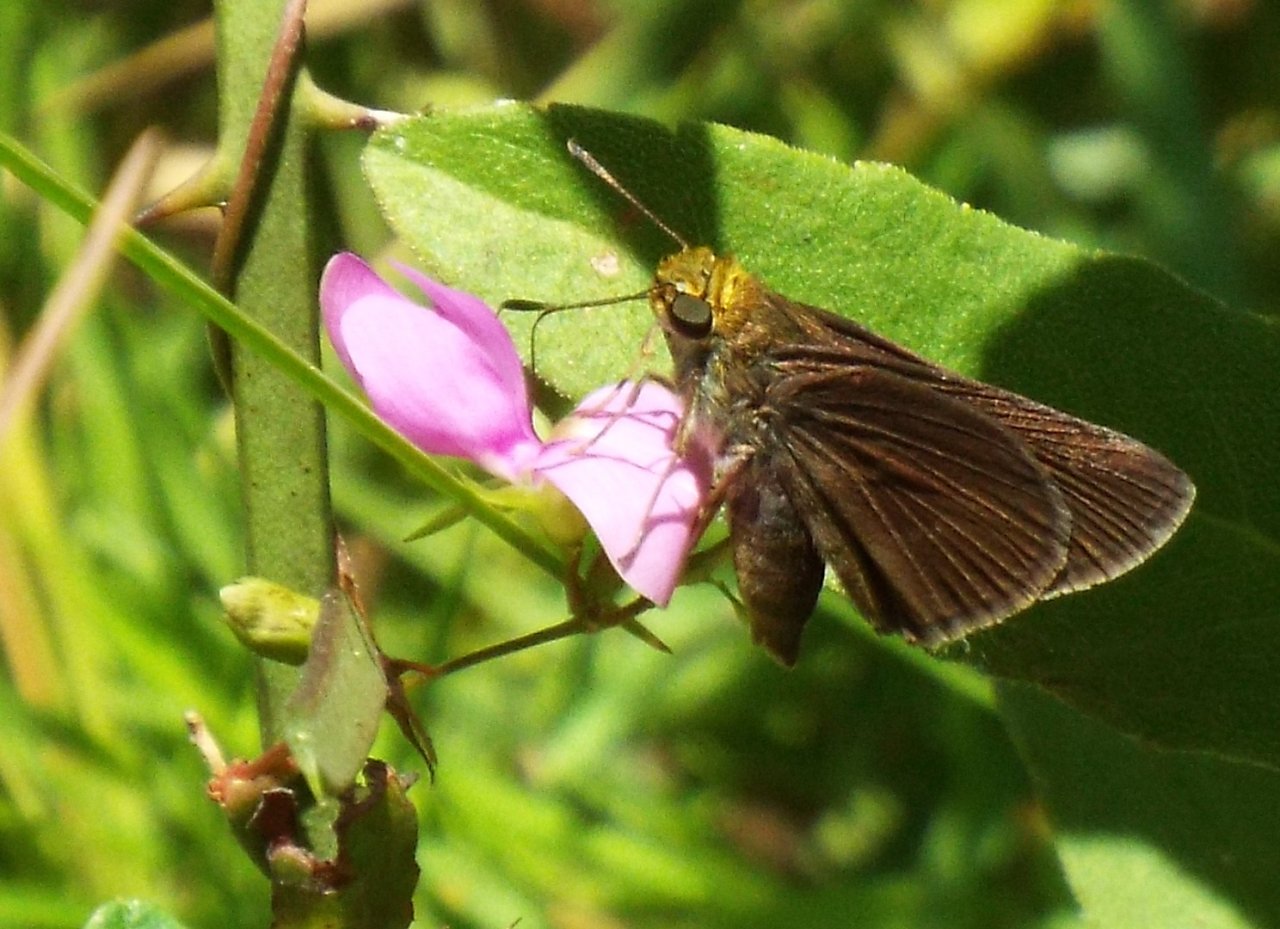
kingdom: Animalia
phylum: Arthropoda
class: Insecta
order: Lepidoptera
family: Hesperiidae
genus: Euphyes
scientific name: Euphyes vestris
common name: Dun Skipper
